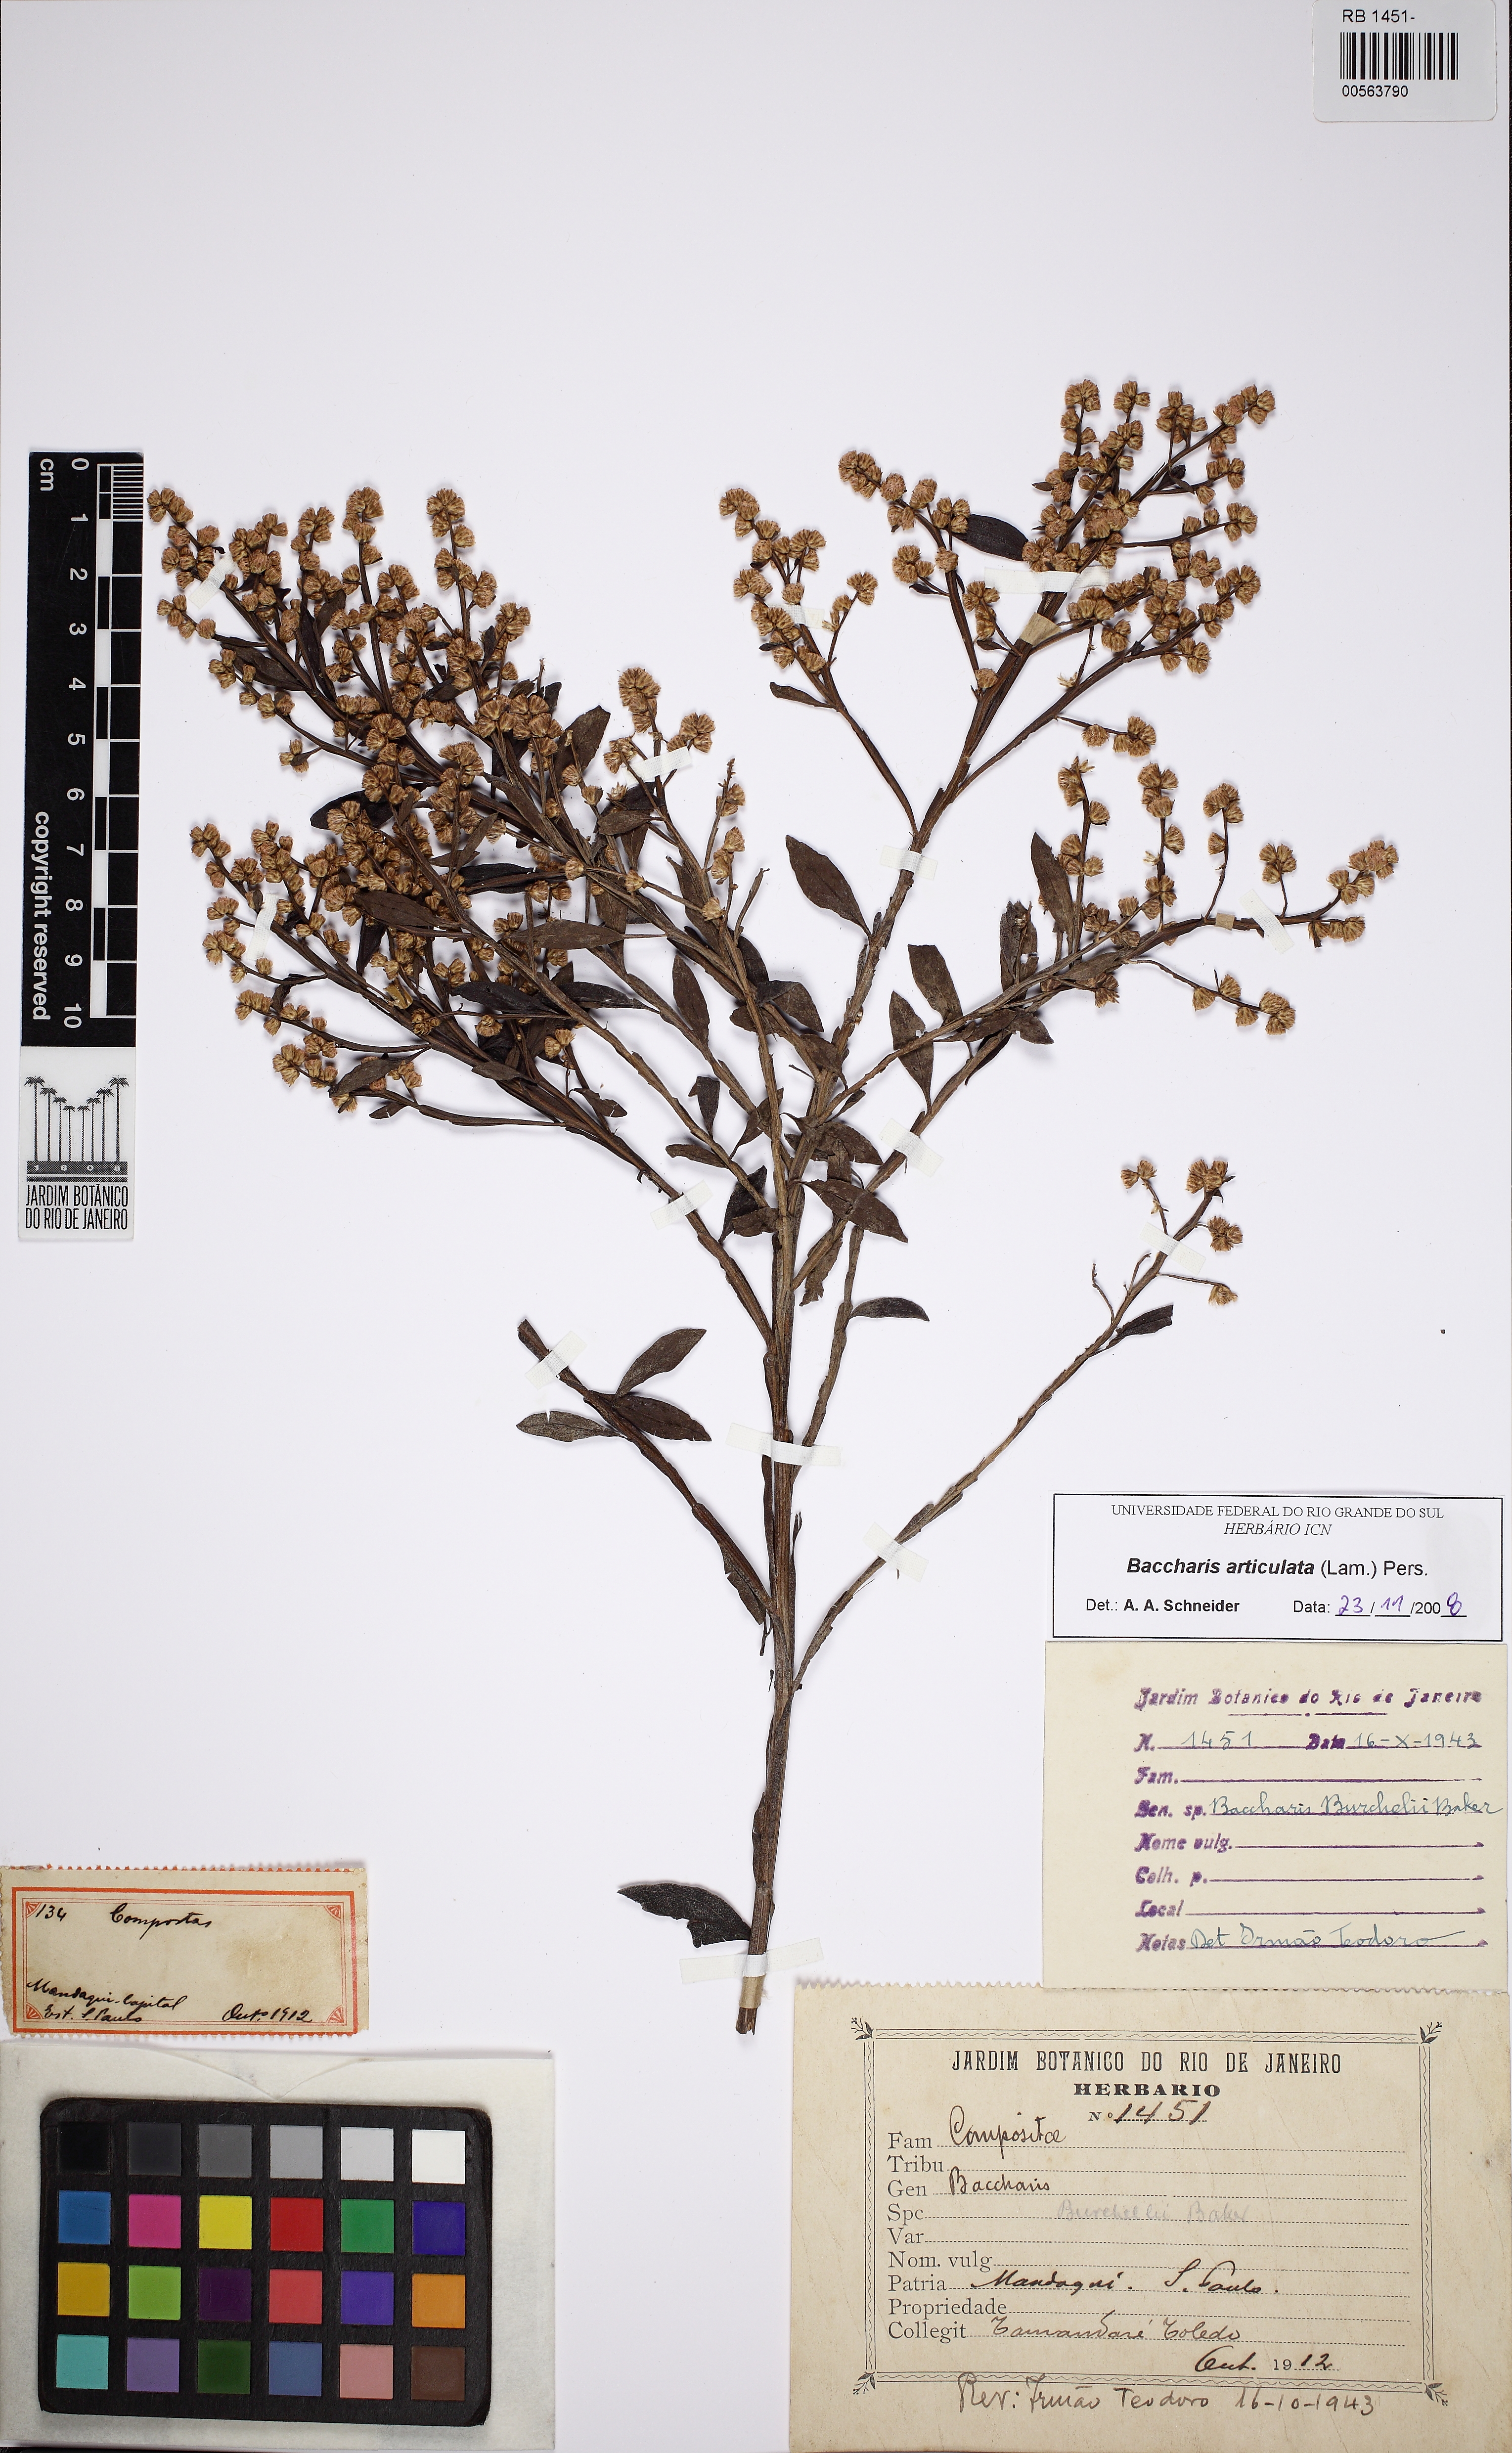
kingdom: Plantae
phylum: Tracheophyta
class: Magnoliopsida
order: Asterales
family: Asteraceae
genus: Baccharis
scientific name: Baccharis articulata
